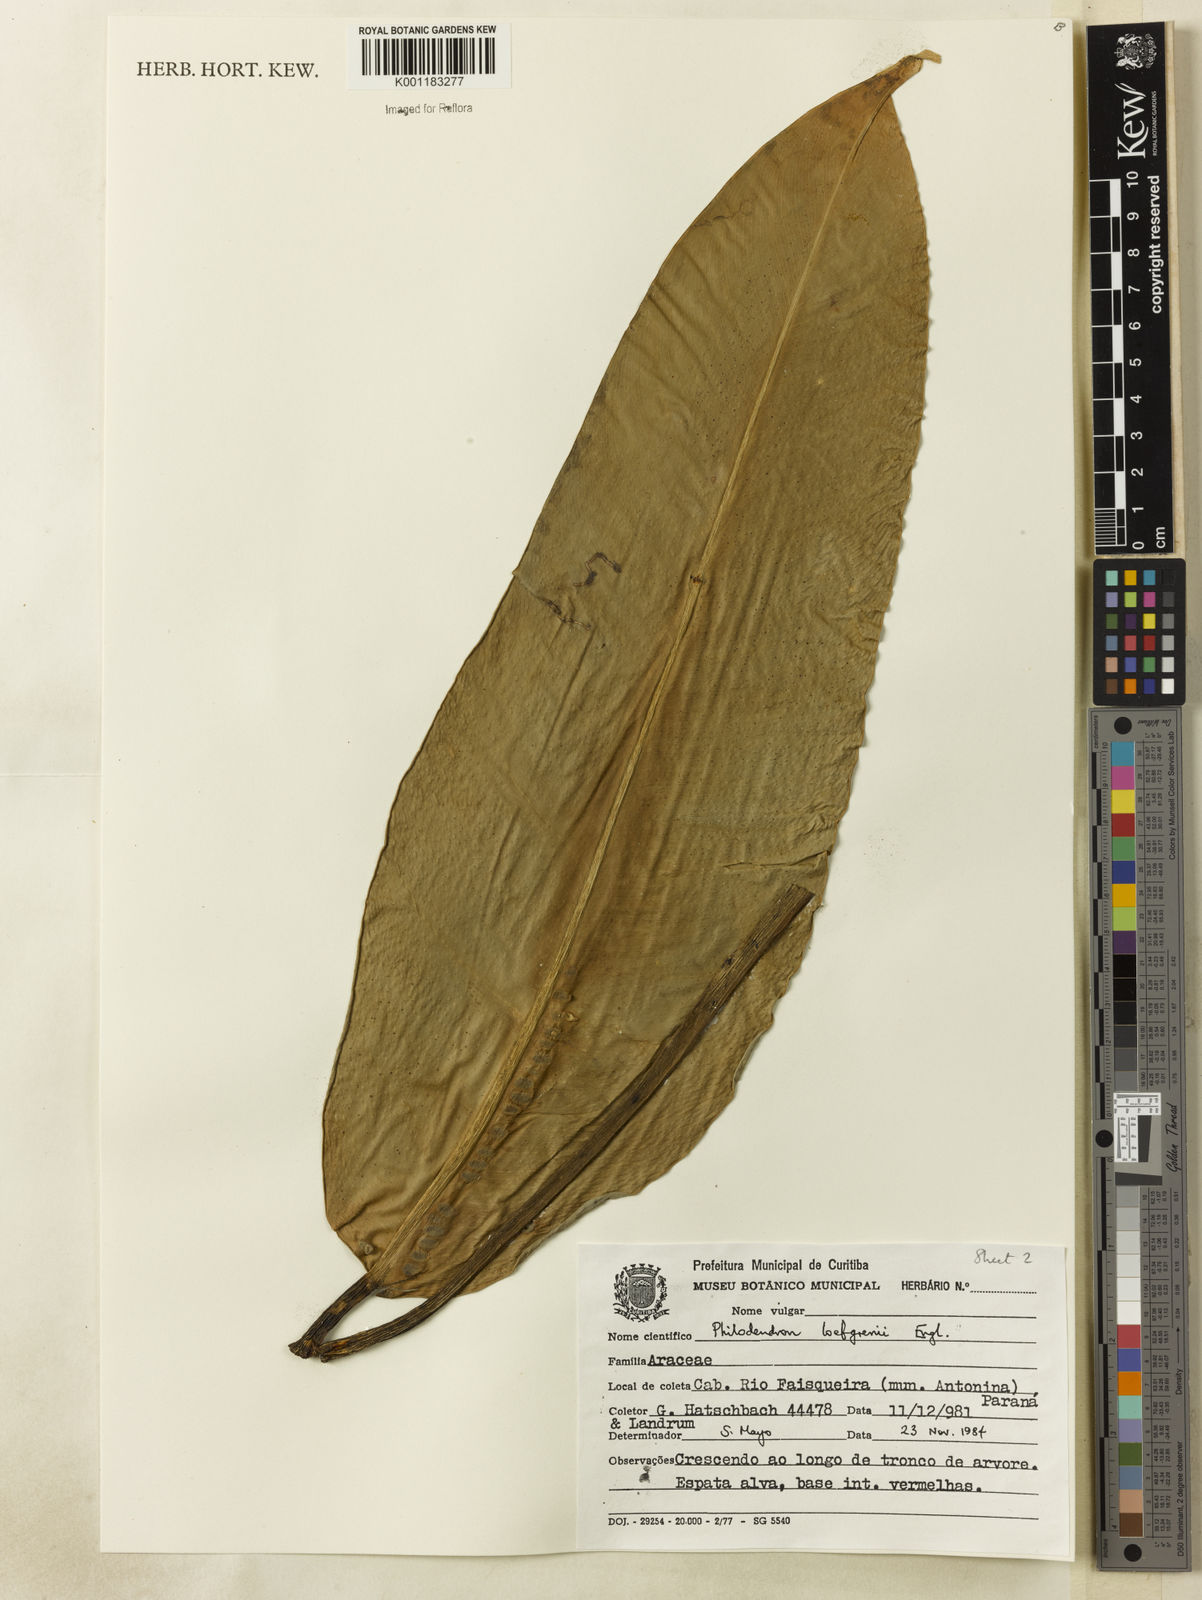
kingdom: Plantae
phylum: Tracheophyta
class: Liliopsida
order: Alismatales
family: Araceae
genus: Philodendron
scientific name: Philodendron loefgrenii
